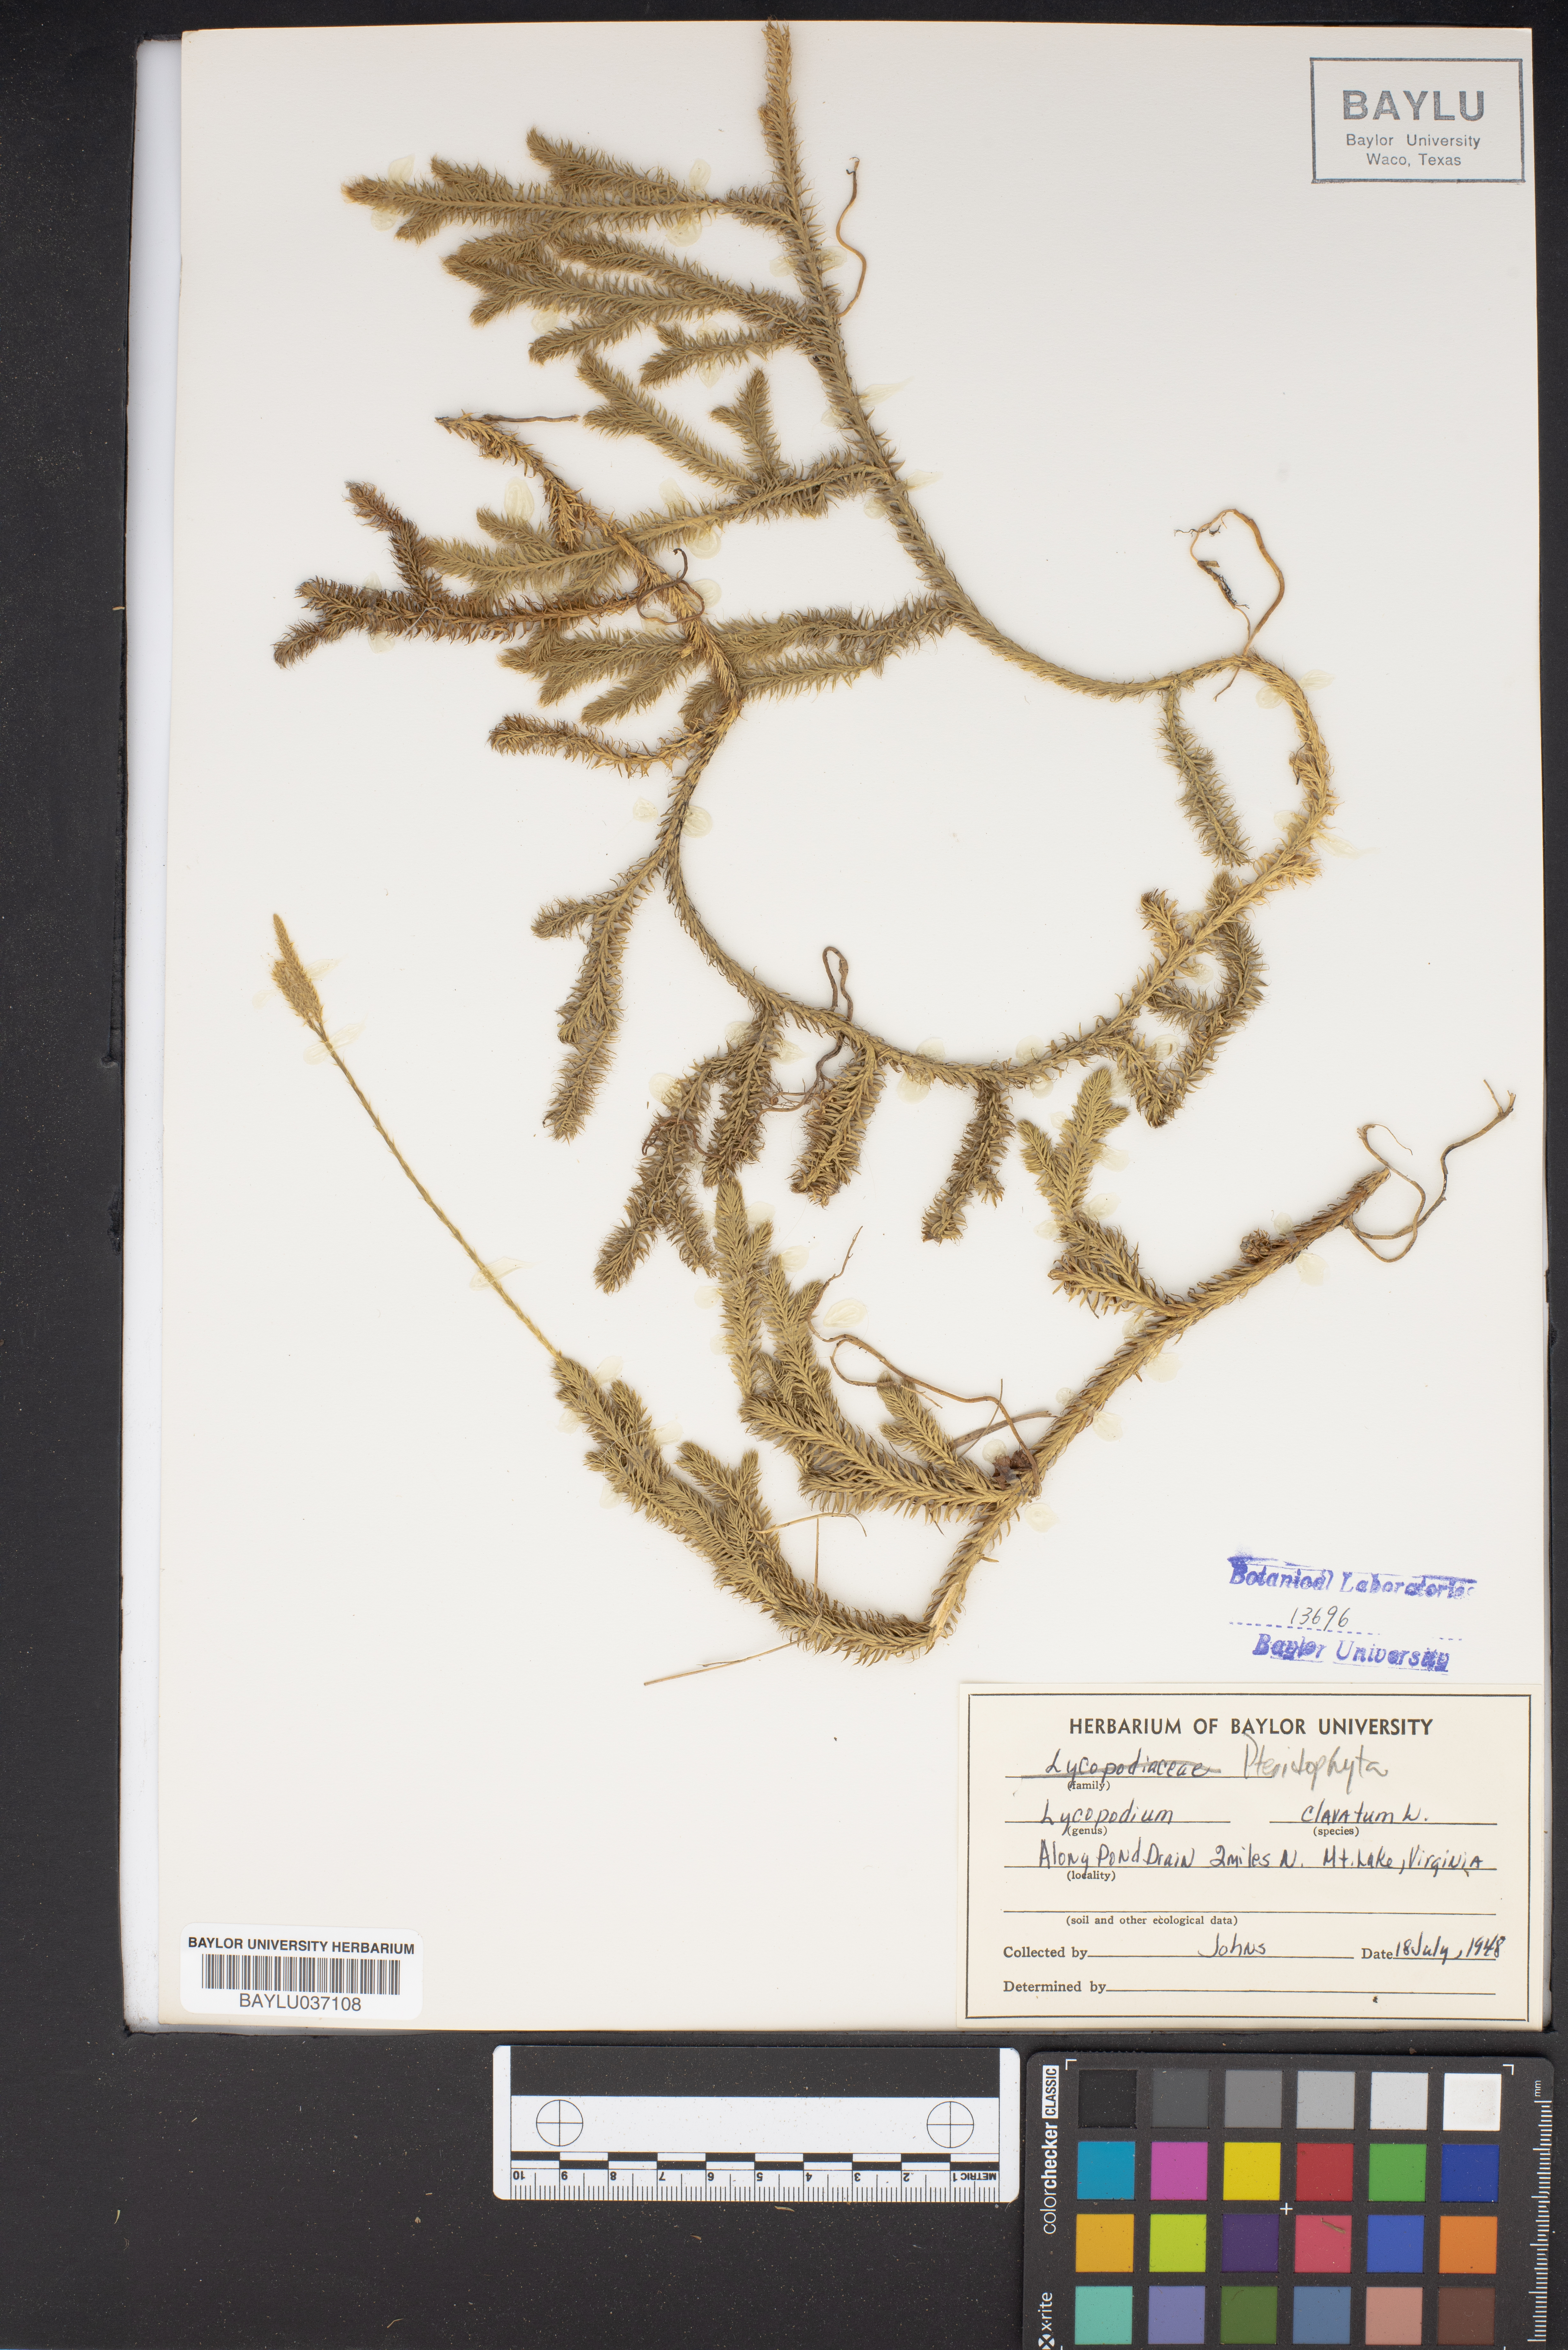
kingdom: Plantae
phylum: Tracheophyta
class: Lycopodiopsida
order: Lycopodiales
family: Lycopodiaceae
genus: Lycopodium
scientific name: Lycopodium clavatum
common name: Stag's-horn clubmoss
